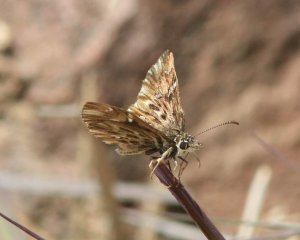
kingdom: Animalia
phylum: Arthropoda
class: Insecta
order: Lepidoptera
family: Hesperiidae
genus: Celotes
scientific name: Celotes nessus
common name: Common Streaky-Skipper
